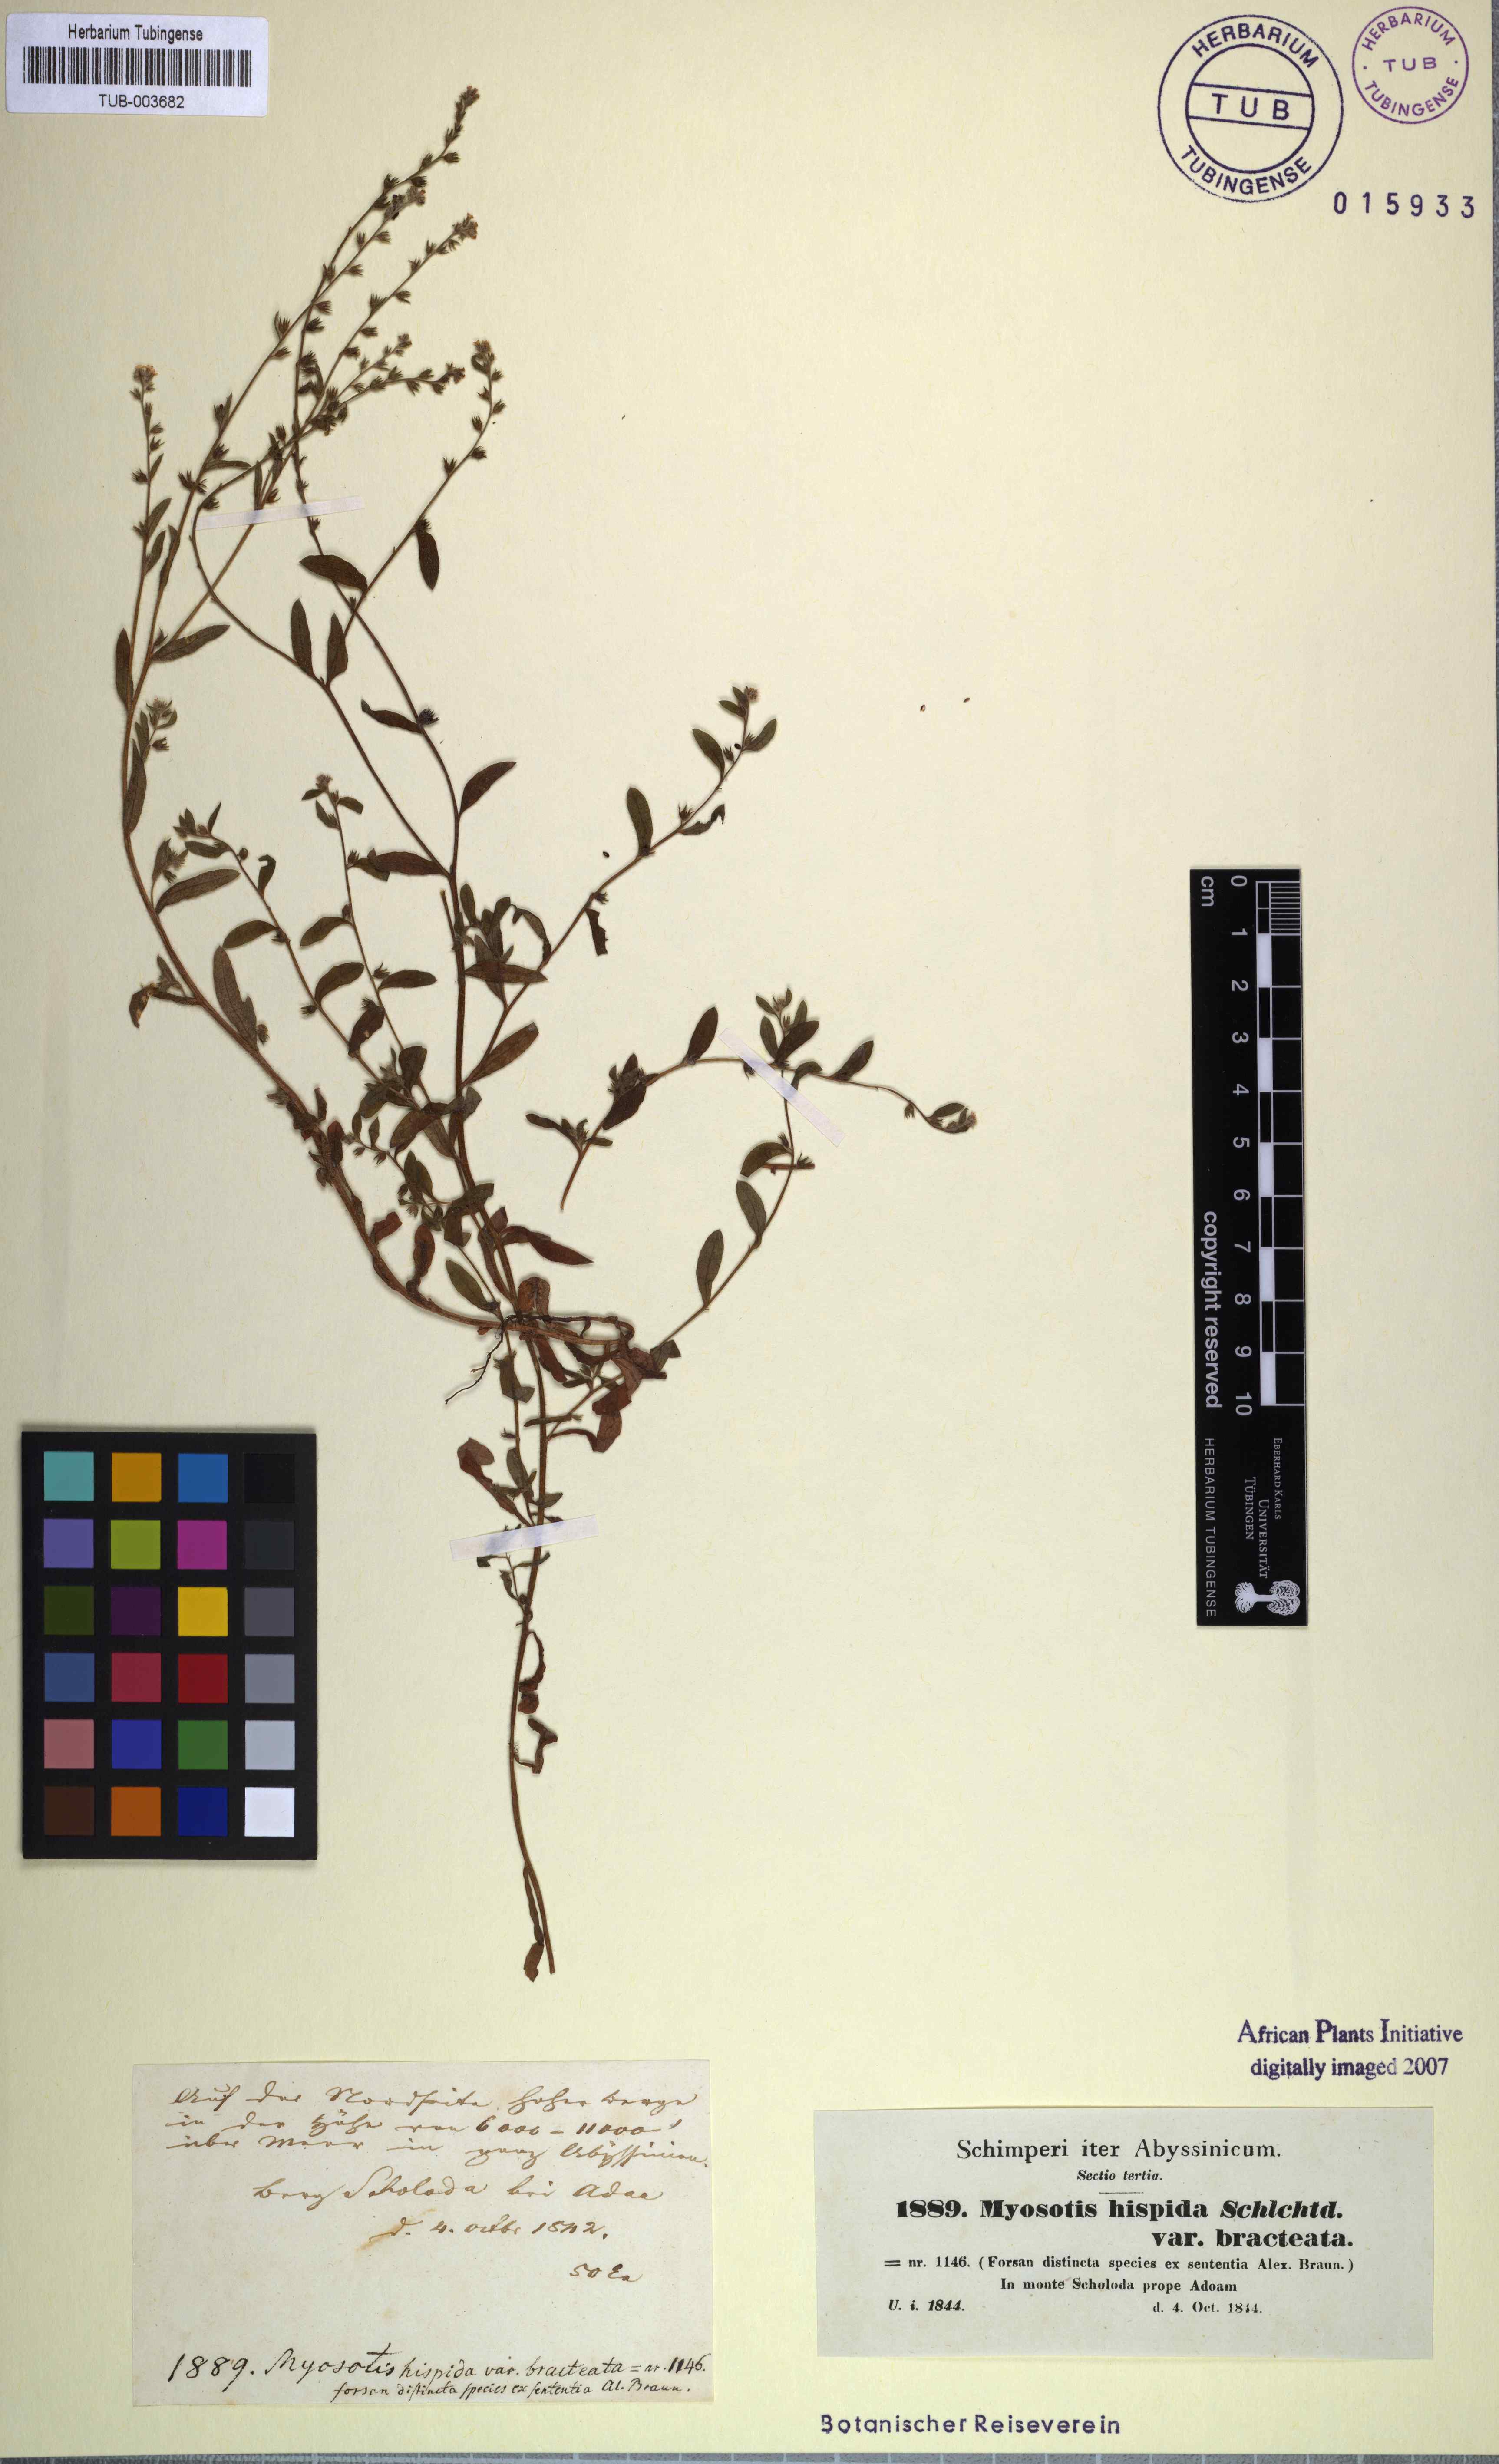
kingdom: Plantae
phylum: Tracheophyta
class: Magnoliopsida
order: Boraginales
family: Boraginaceae
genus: Myosotis
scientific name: Myosotis ramosissima
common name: Early forget-me-not
